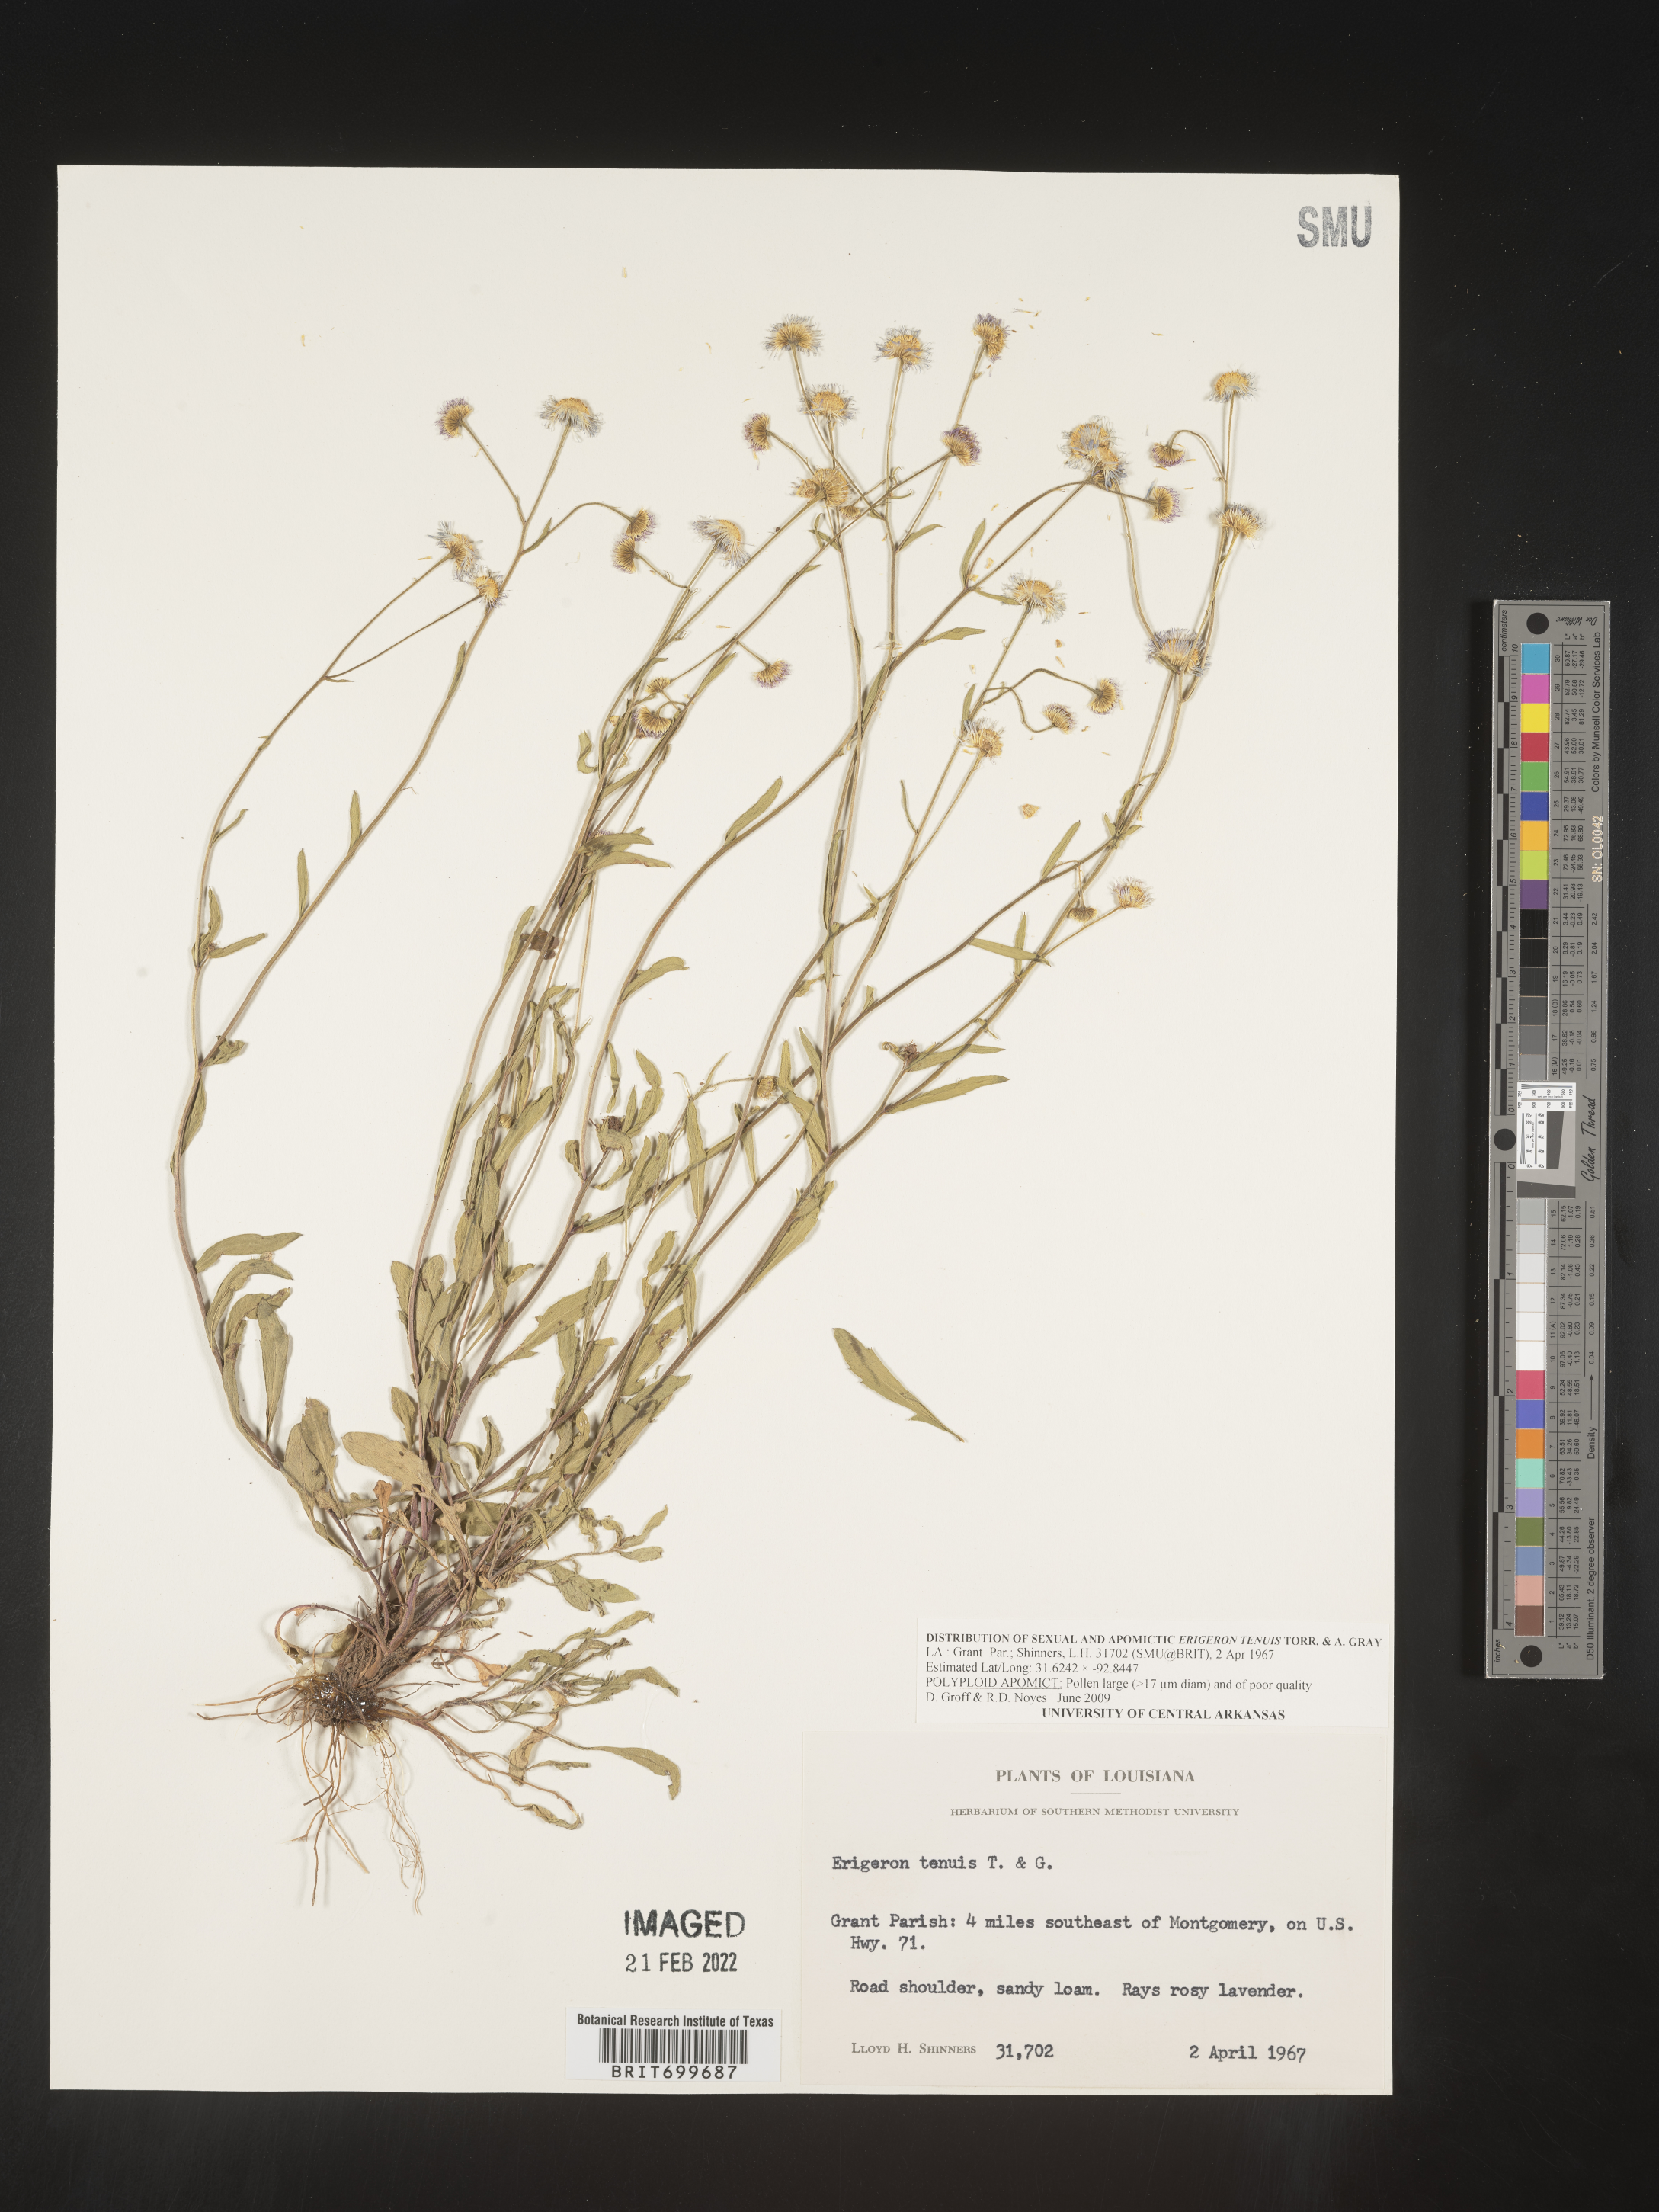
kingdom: Plantae
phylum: Tracheophyta
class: Magnoliopsida
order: Asterales
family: Asteraceae
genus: Erigeron
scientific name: Erigeron tenuis
